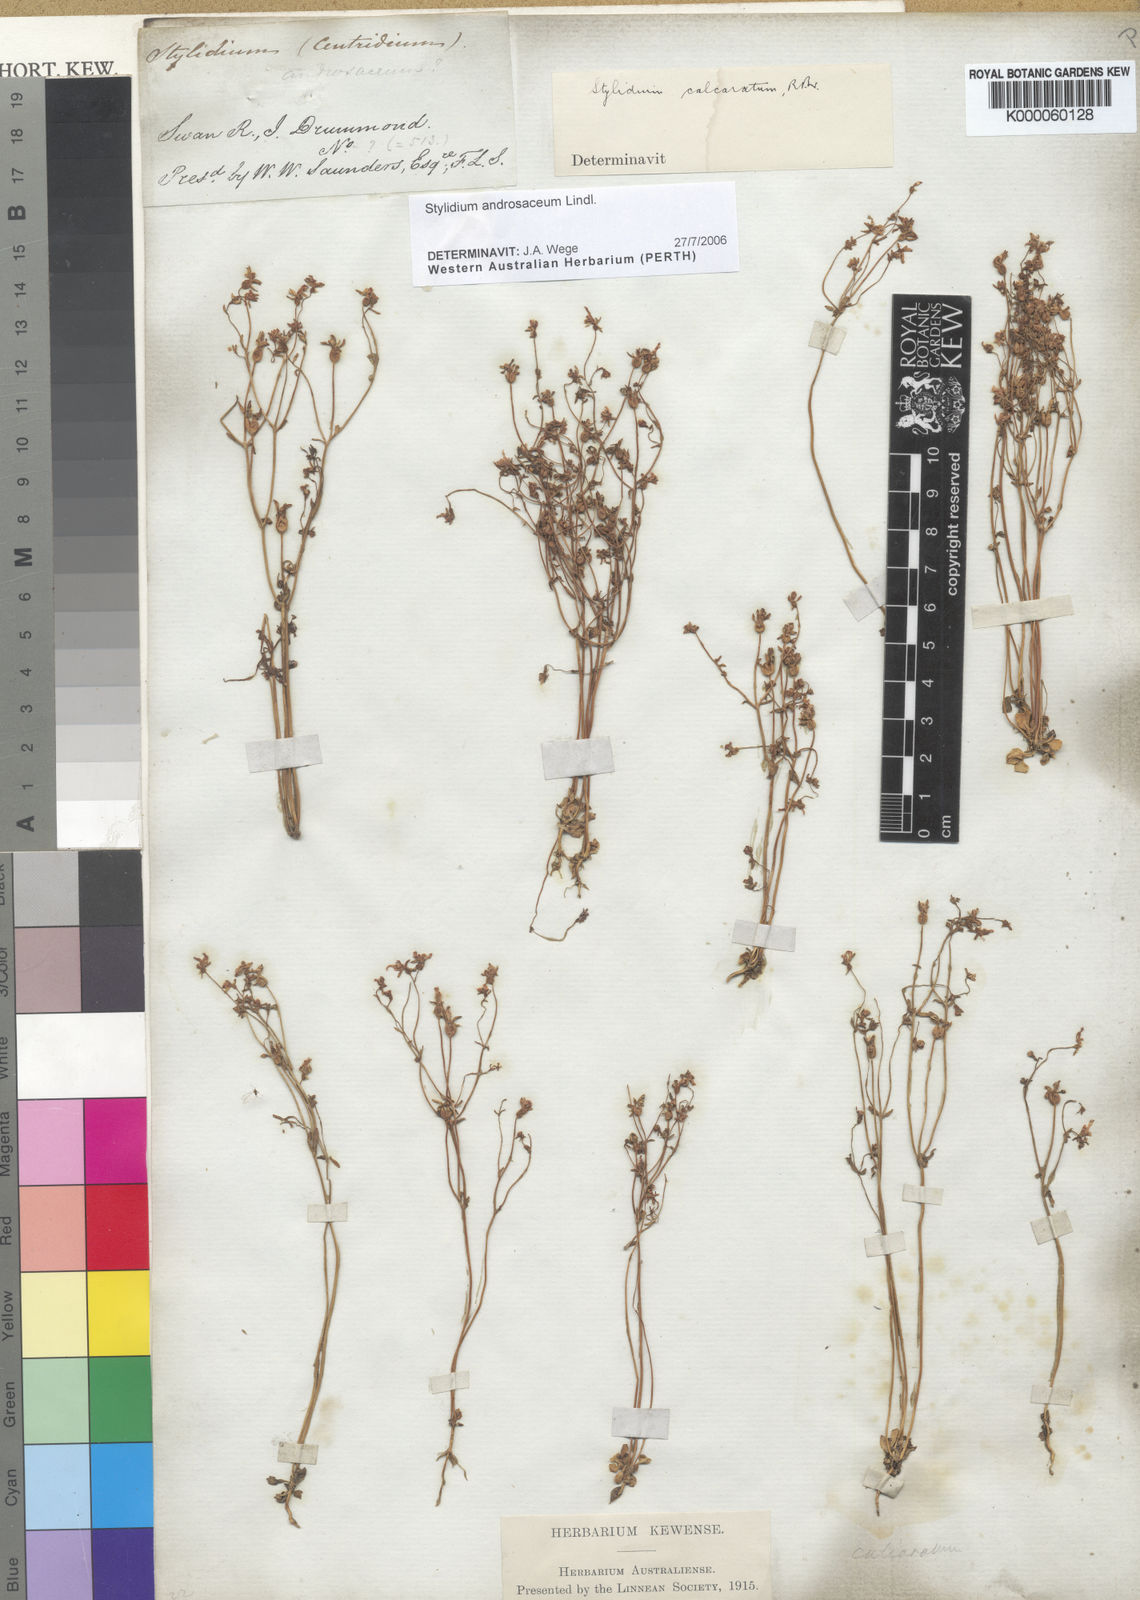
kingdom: Plantae
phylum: Tracheophyta
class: Magnoliopsida
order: Asterales
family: Stylidiaceae
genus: Stylidium
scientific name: Stylidium androsaceum
